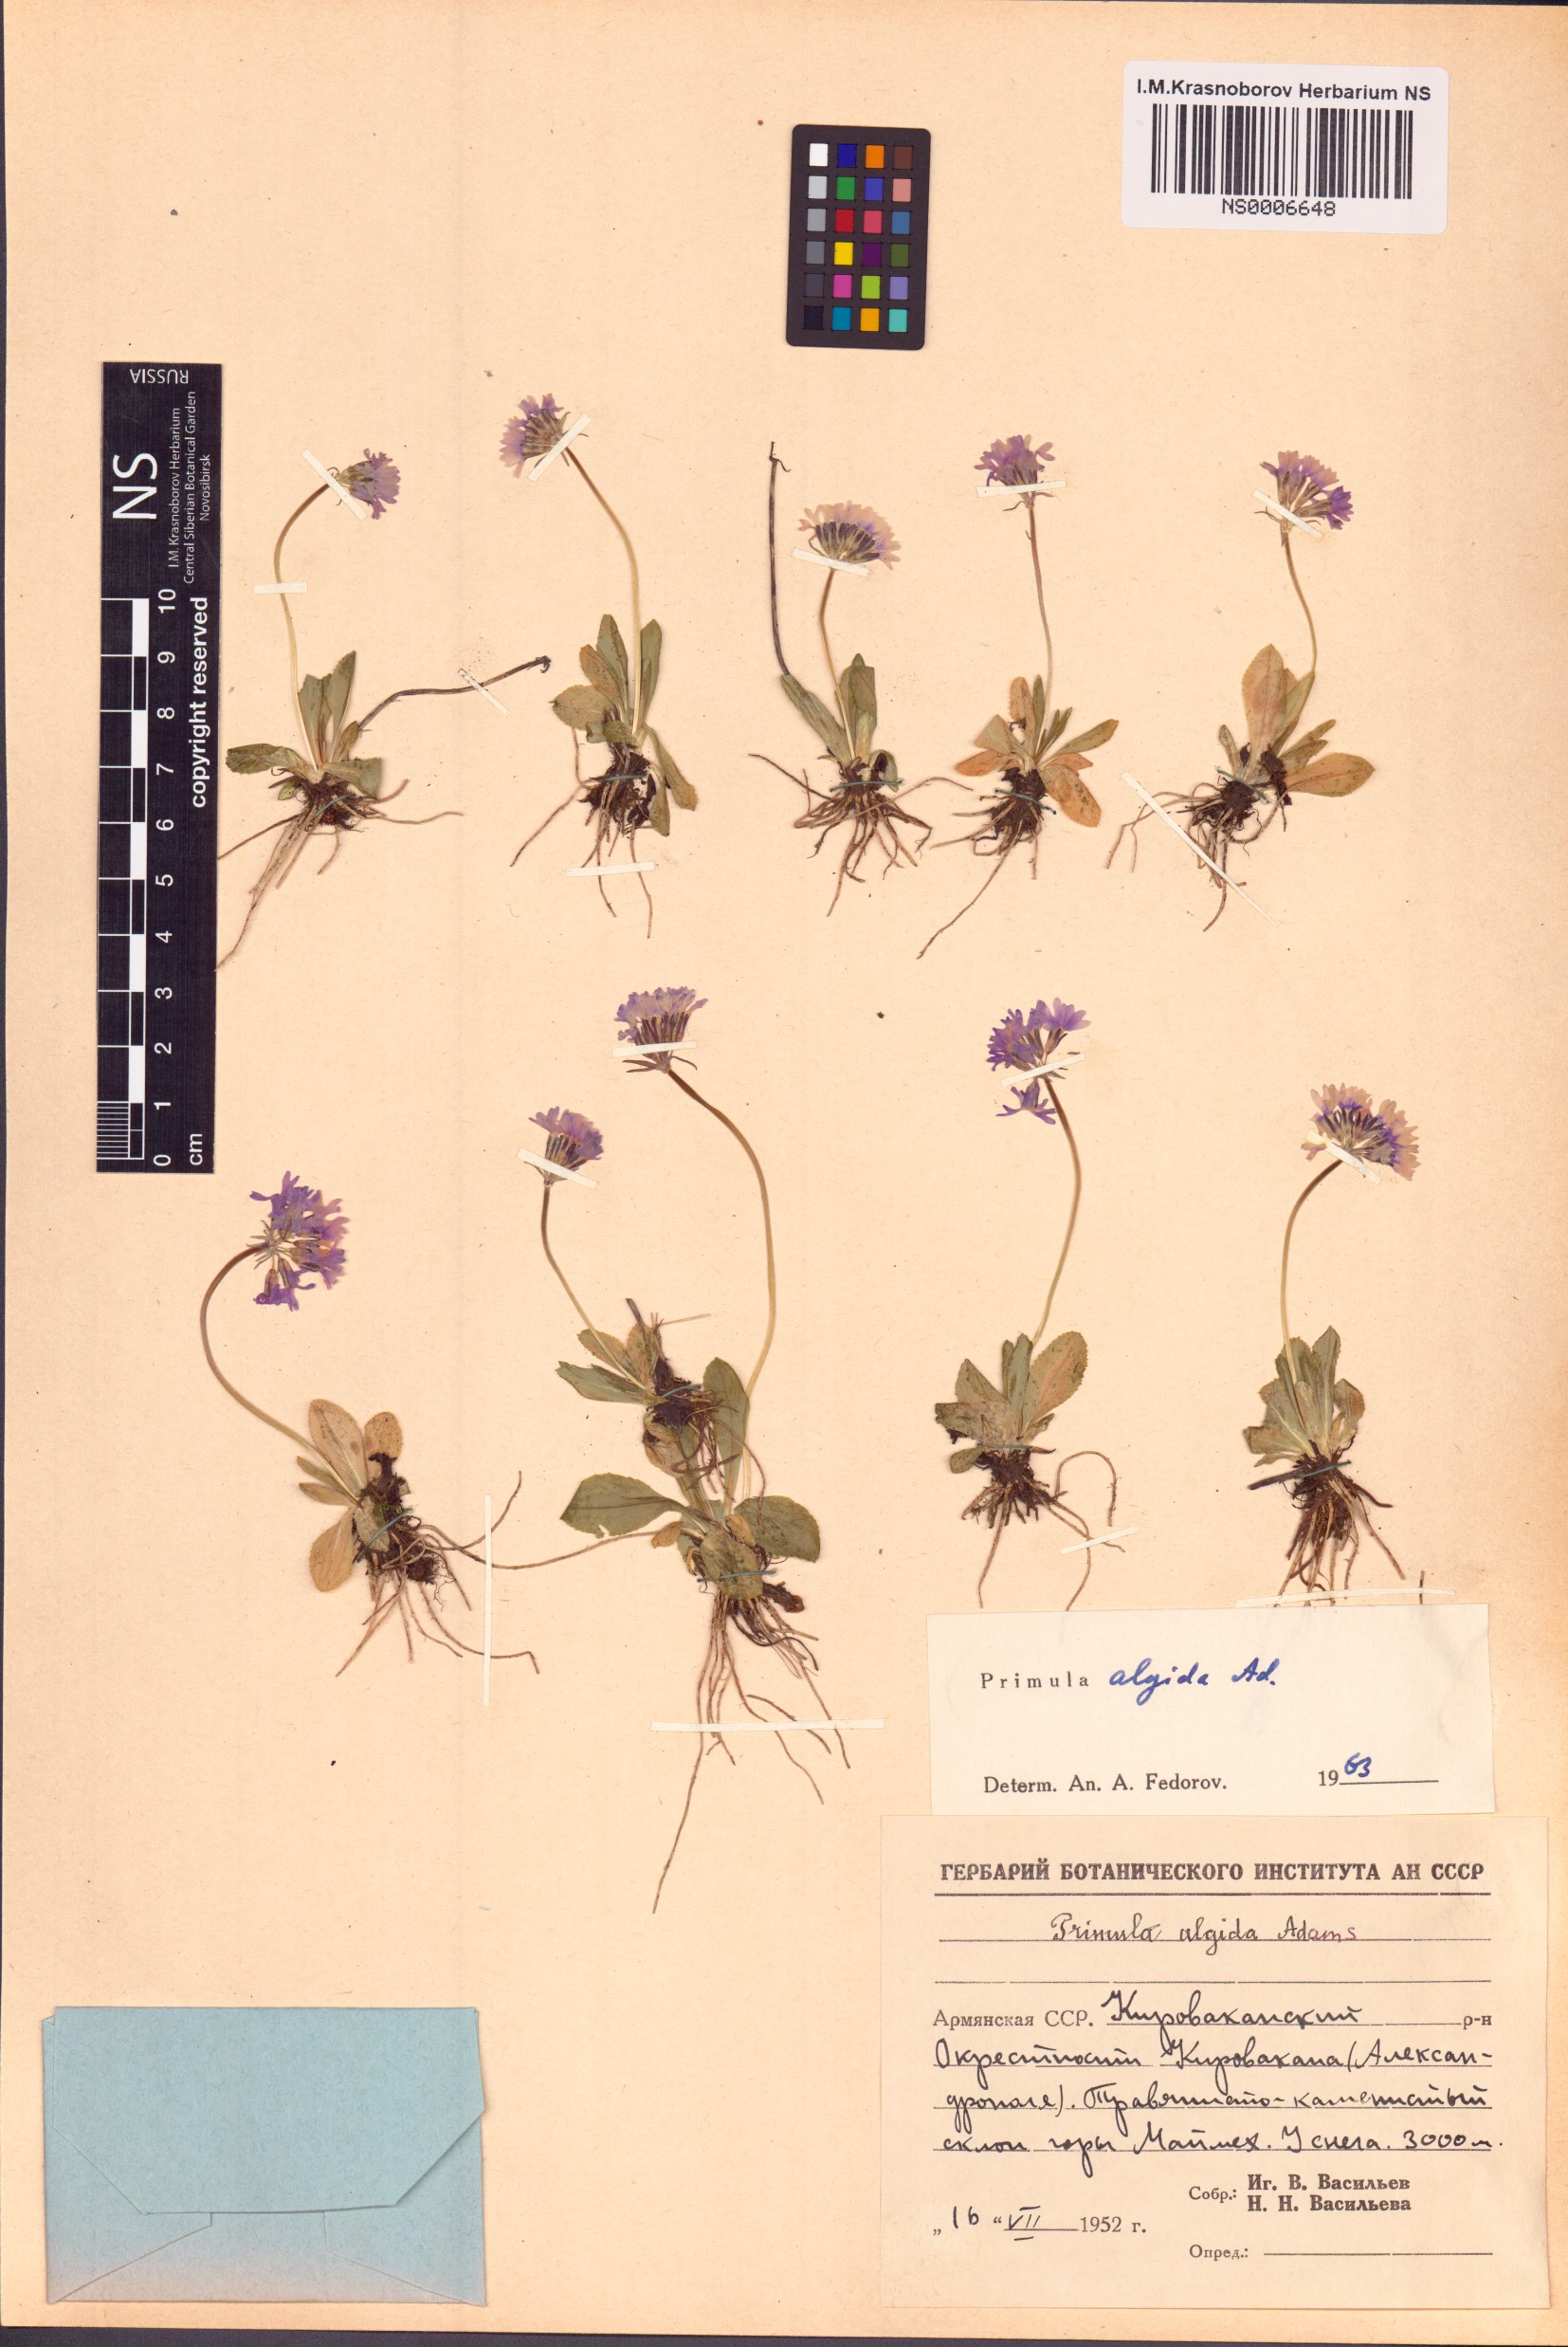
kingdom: Plantae
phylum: Tracheophyta
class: Magnoliopsida
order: Ericales
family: Primulaceae
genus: Primula
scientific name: Primula algida
